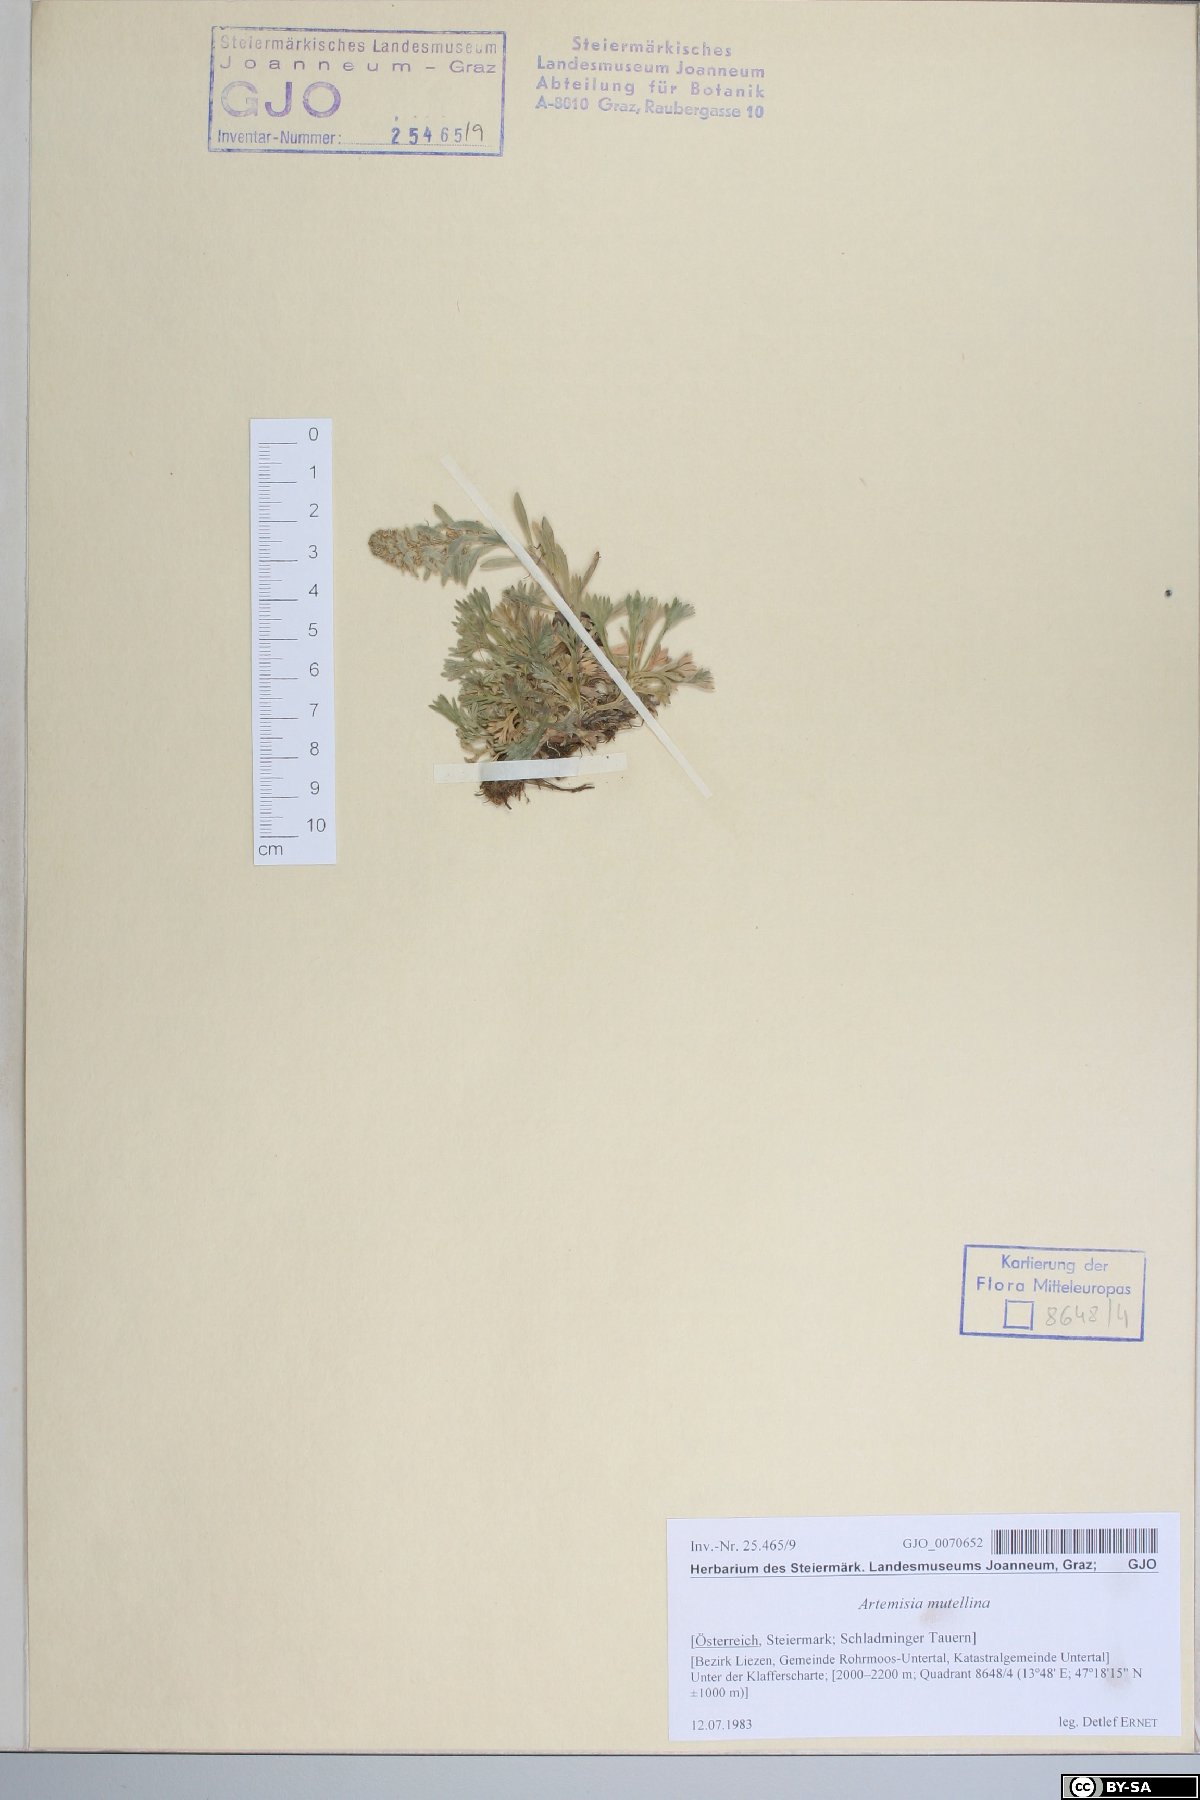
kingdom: Plantae
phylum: Tracheophyta
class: Magnoliopsida
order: Asterales
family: Asteraceae
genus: Artemisia
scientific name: Artemisia genipi
